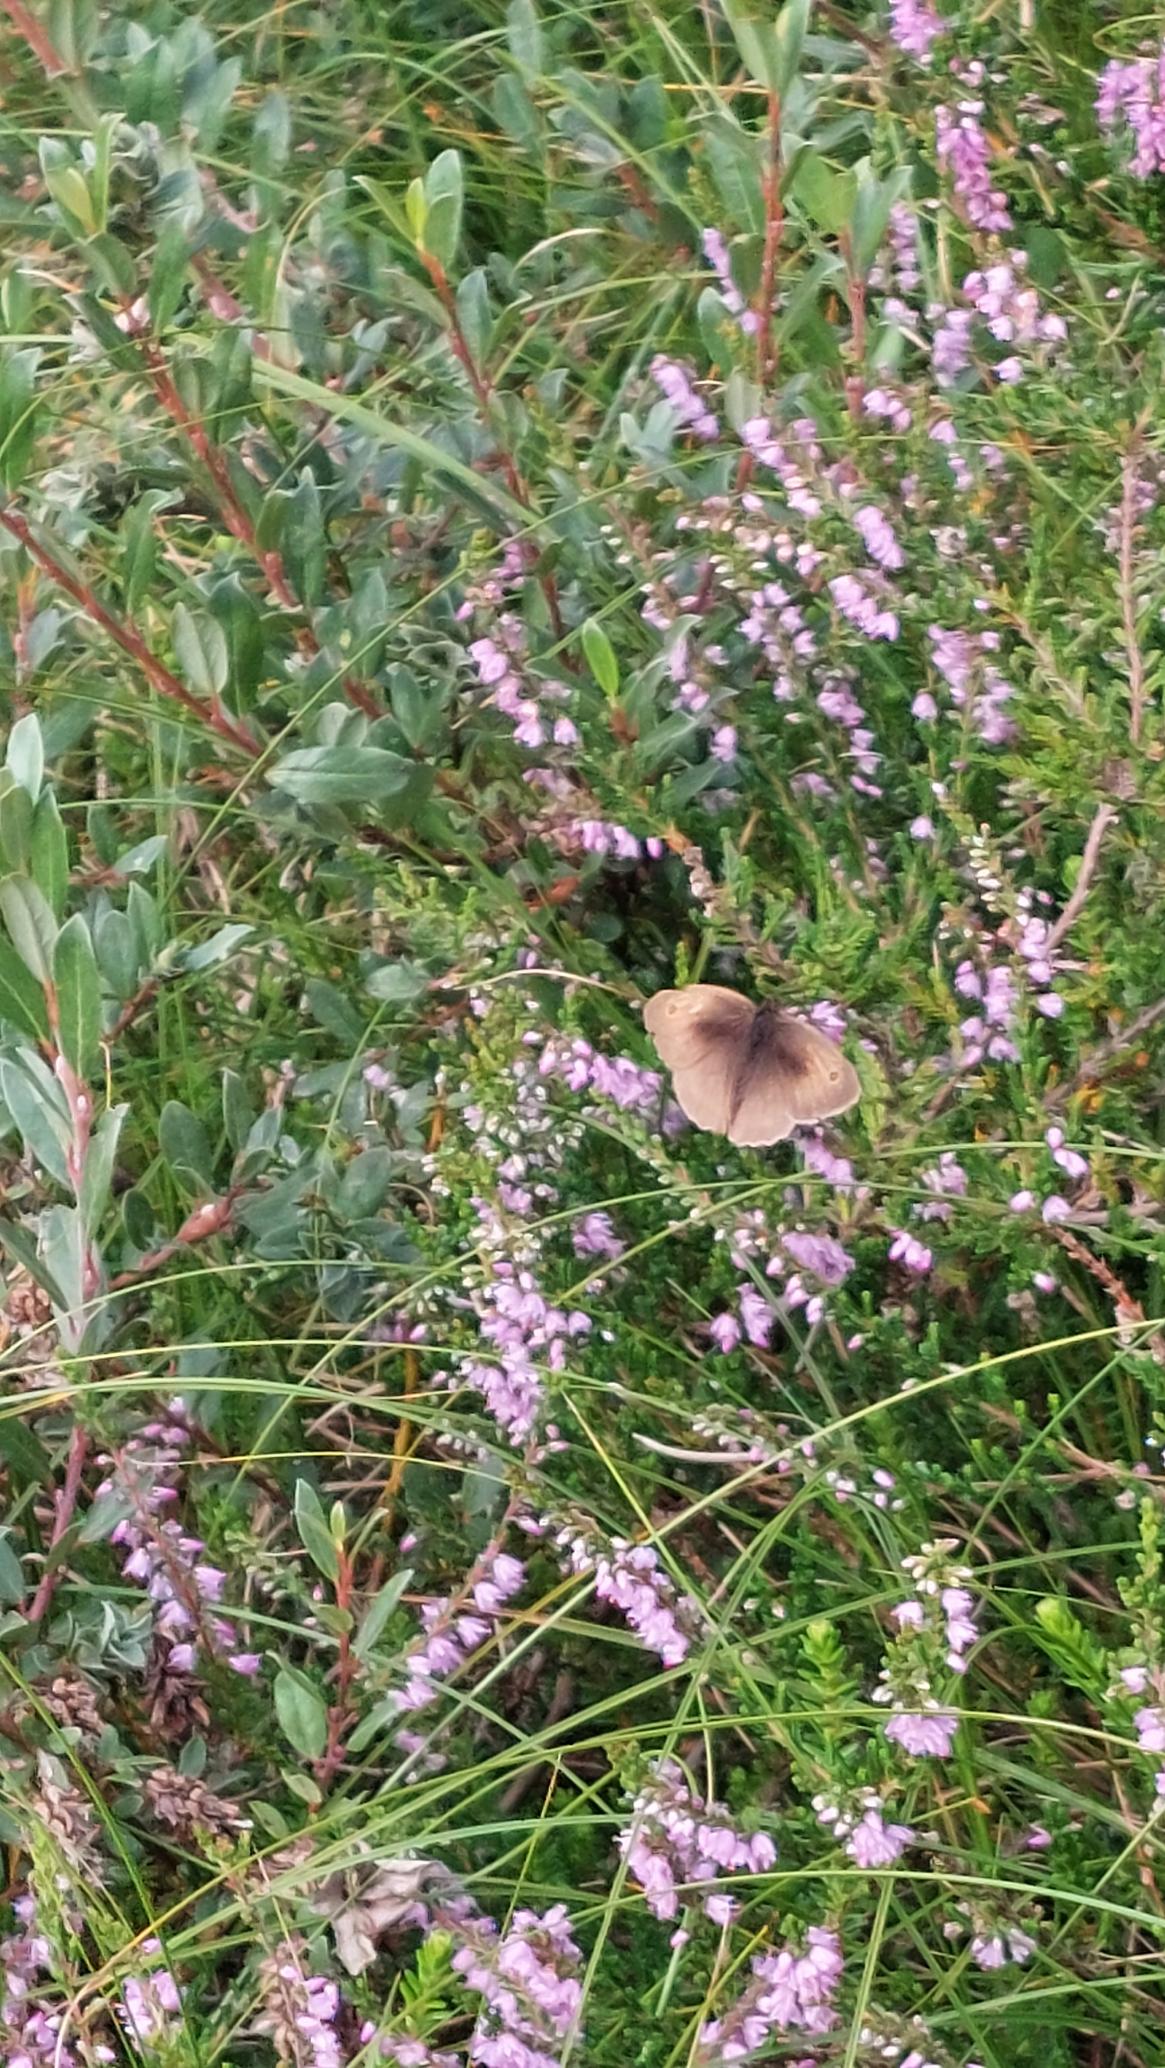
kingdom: Animalia
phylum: Arthropoda
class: Insecta
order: Lepidoptera
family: Nymphalidae
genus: Maniola
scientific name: Maniola jurtina
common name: Græsrandøje
